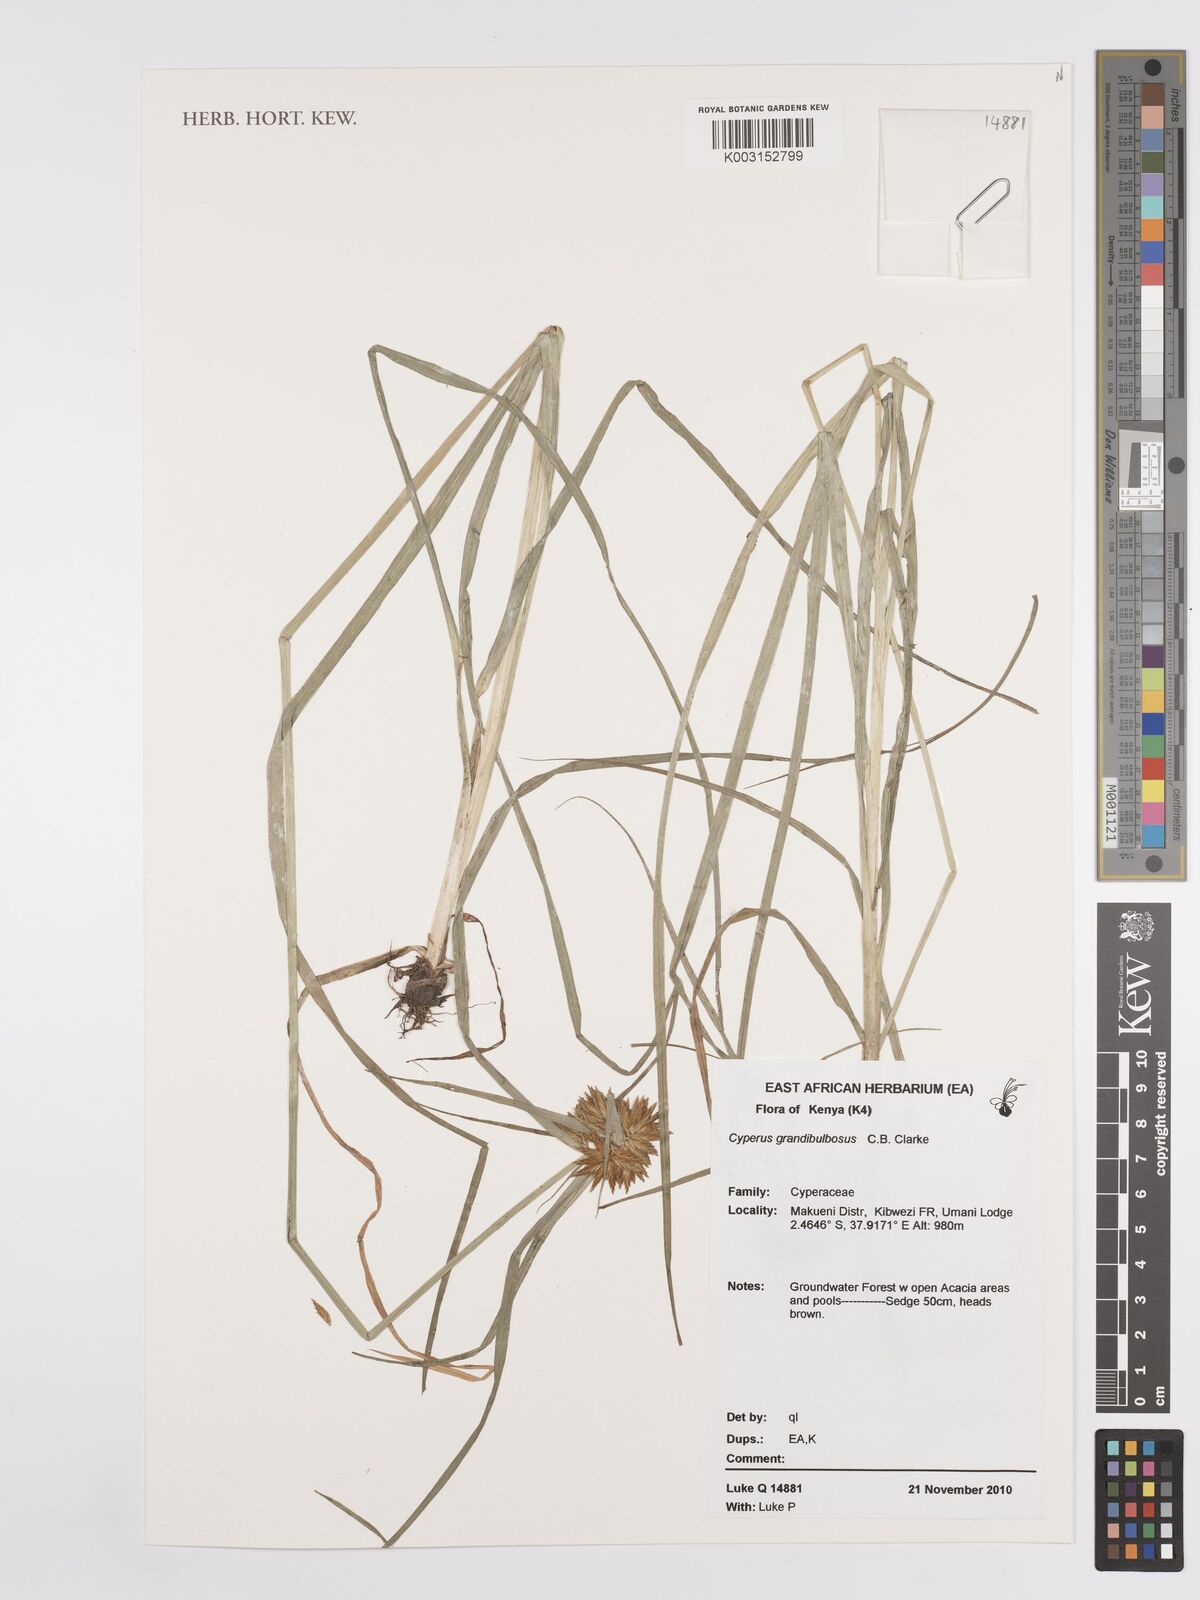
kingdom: Plantae
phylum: Tracheophyta
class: Liliopsida
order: Poales
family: Cyperaceae
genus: Cyperus
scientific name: Cyperus grandibulbosus
